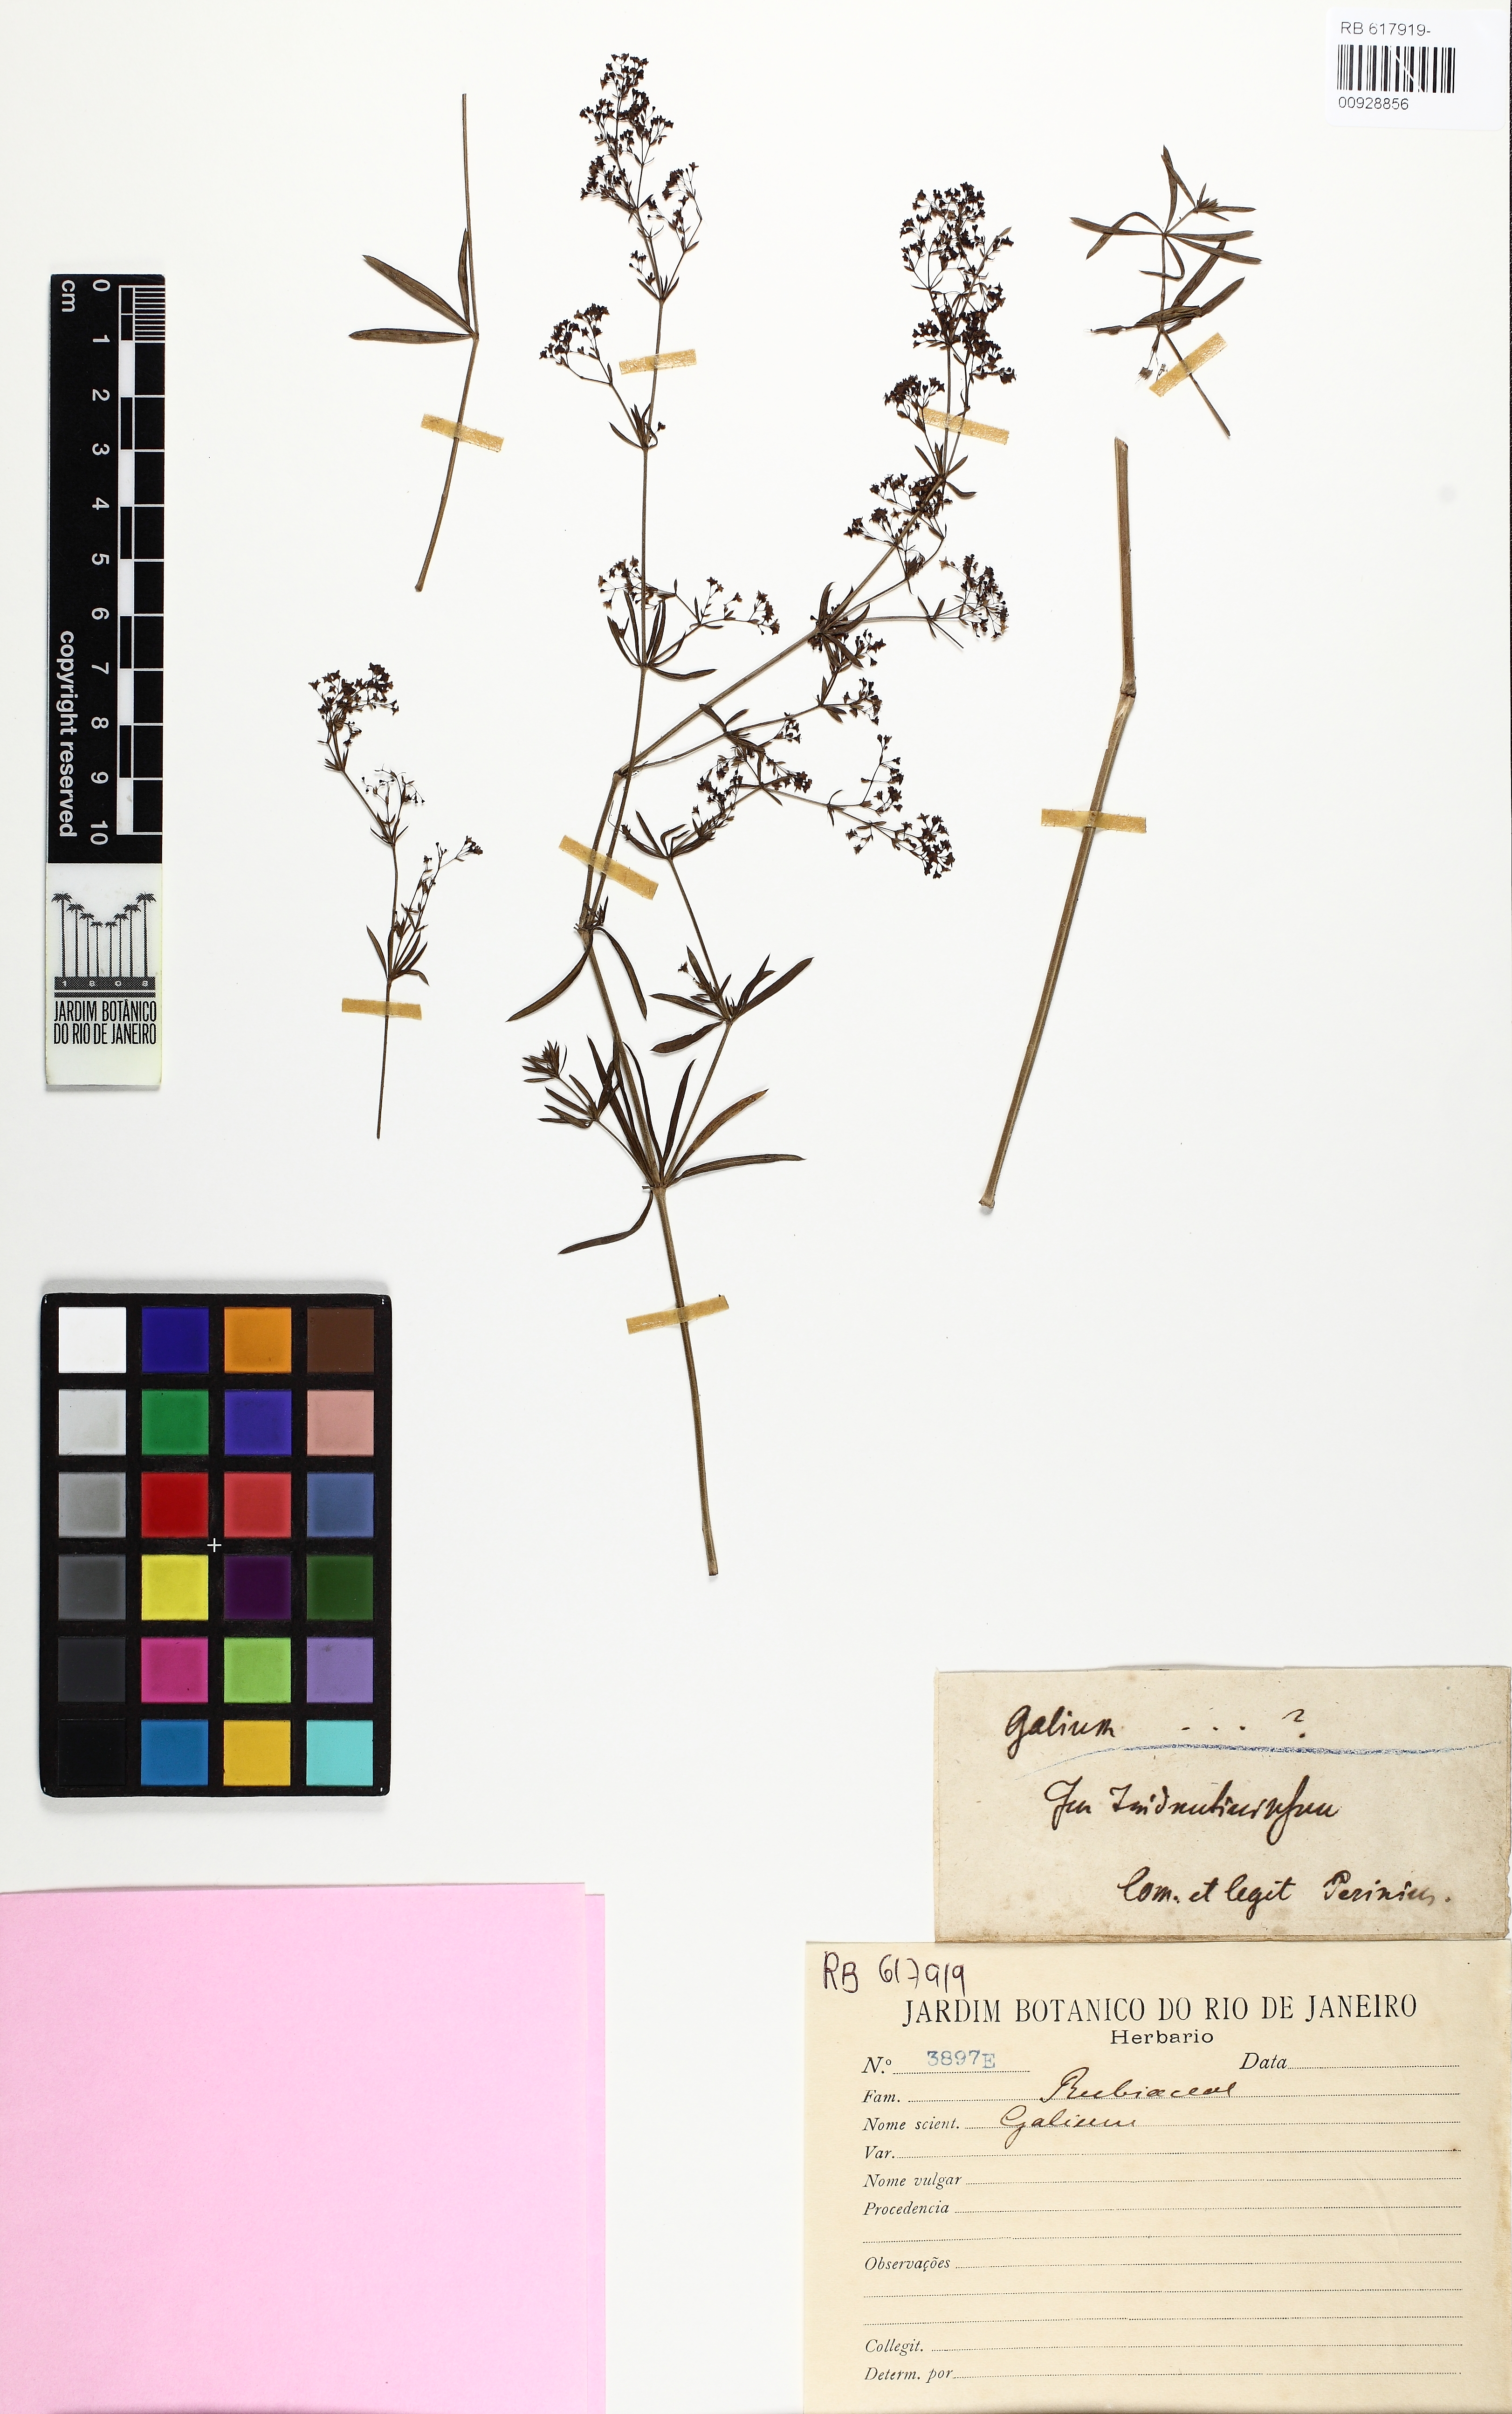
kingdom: Plantae
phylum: Tracheophyta
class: Magnoliopsida
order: Gentianales
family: Rubiaceae
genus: Galium
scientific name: Galium
